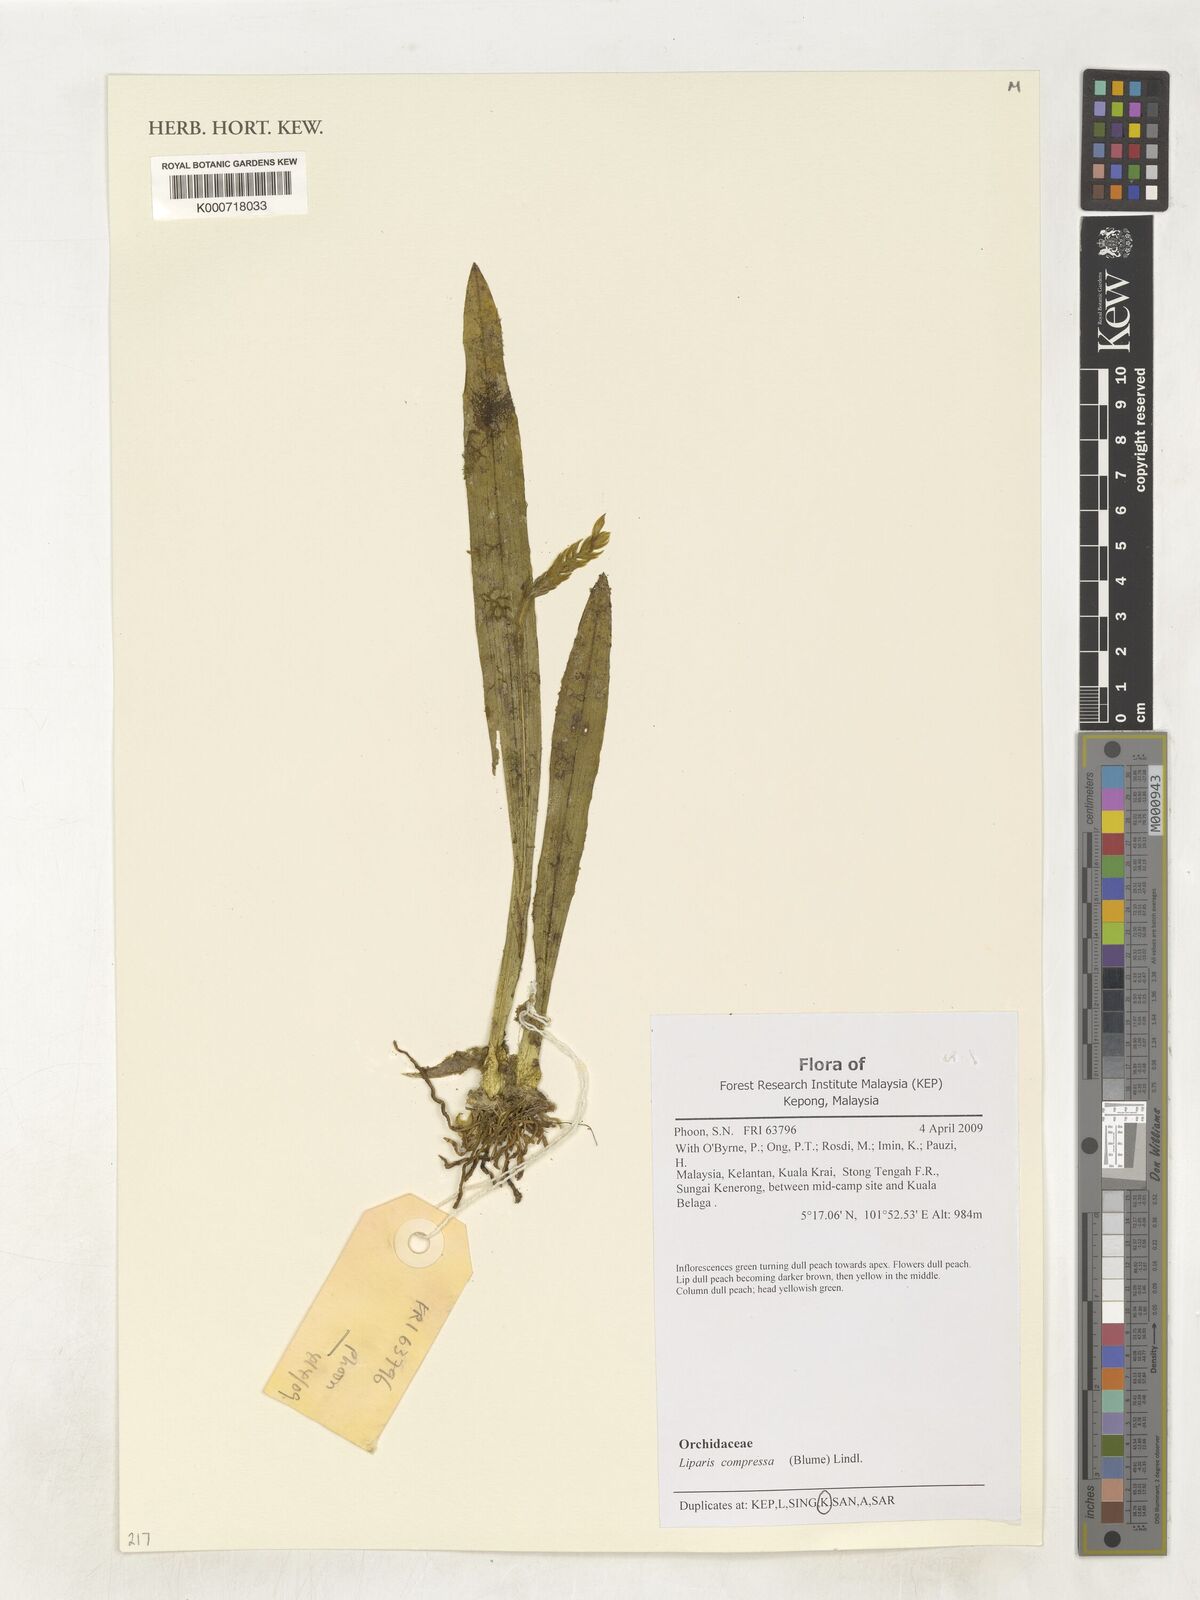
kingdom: Plantae
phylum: Tracheophyta
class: Liliopsida
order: Asparagales
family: Orchidaceae
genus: Stichorkis
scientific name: Stichorkis compressa
